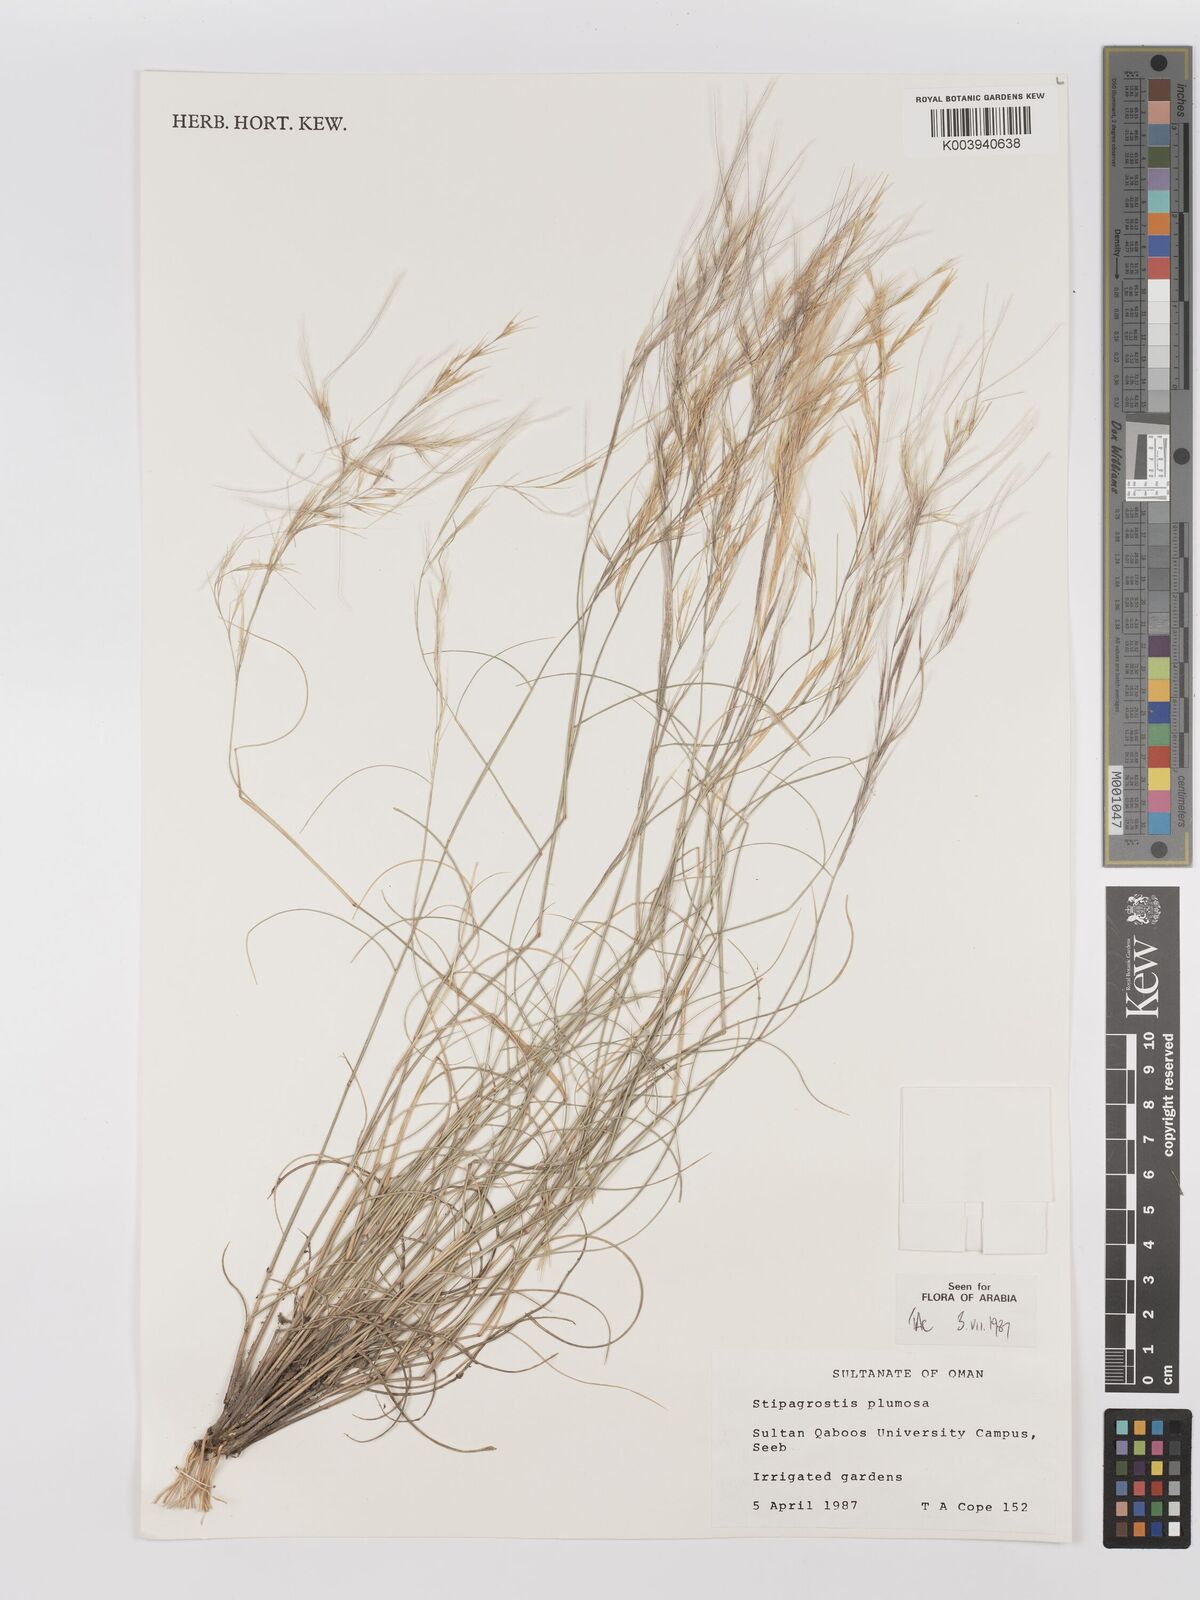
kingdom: Plantae
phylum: Tracheophyta
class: Liliopsida
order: Poales
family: Poaceae
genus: Stipagrostis
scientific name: Stipagrostis plumosa
